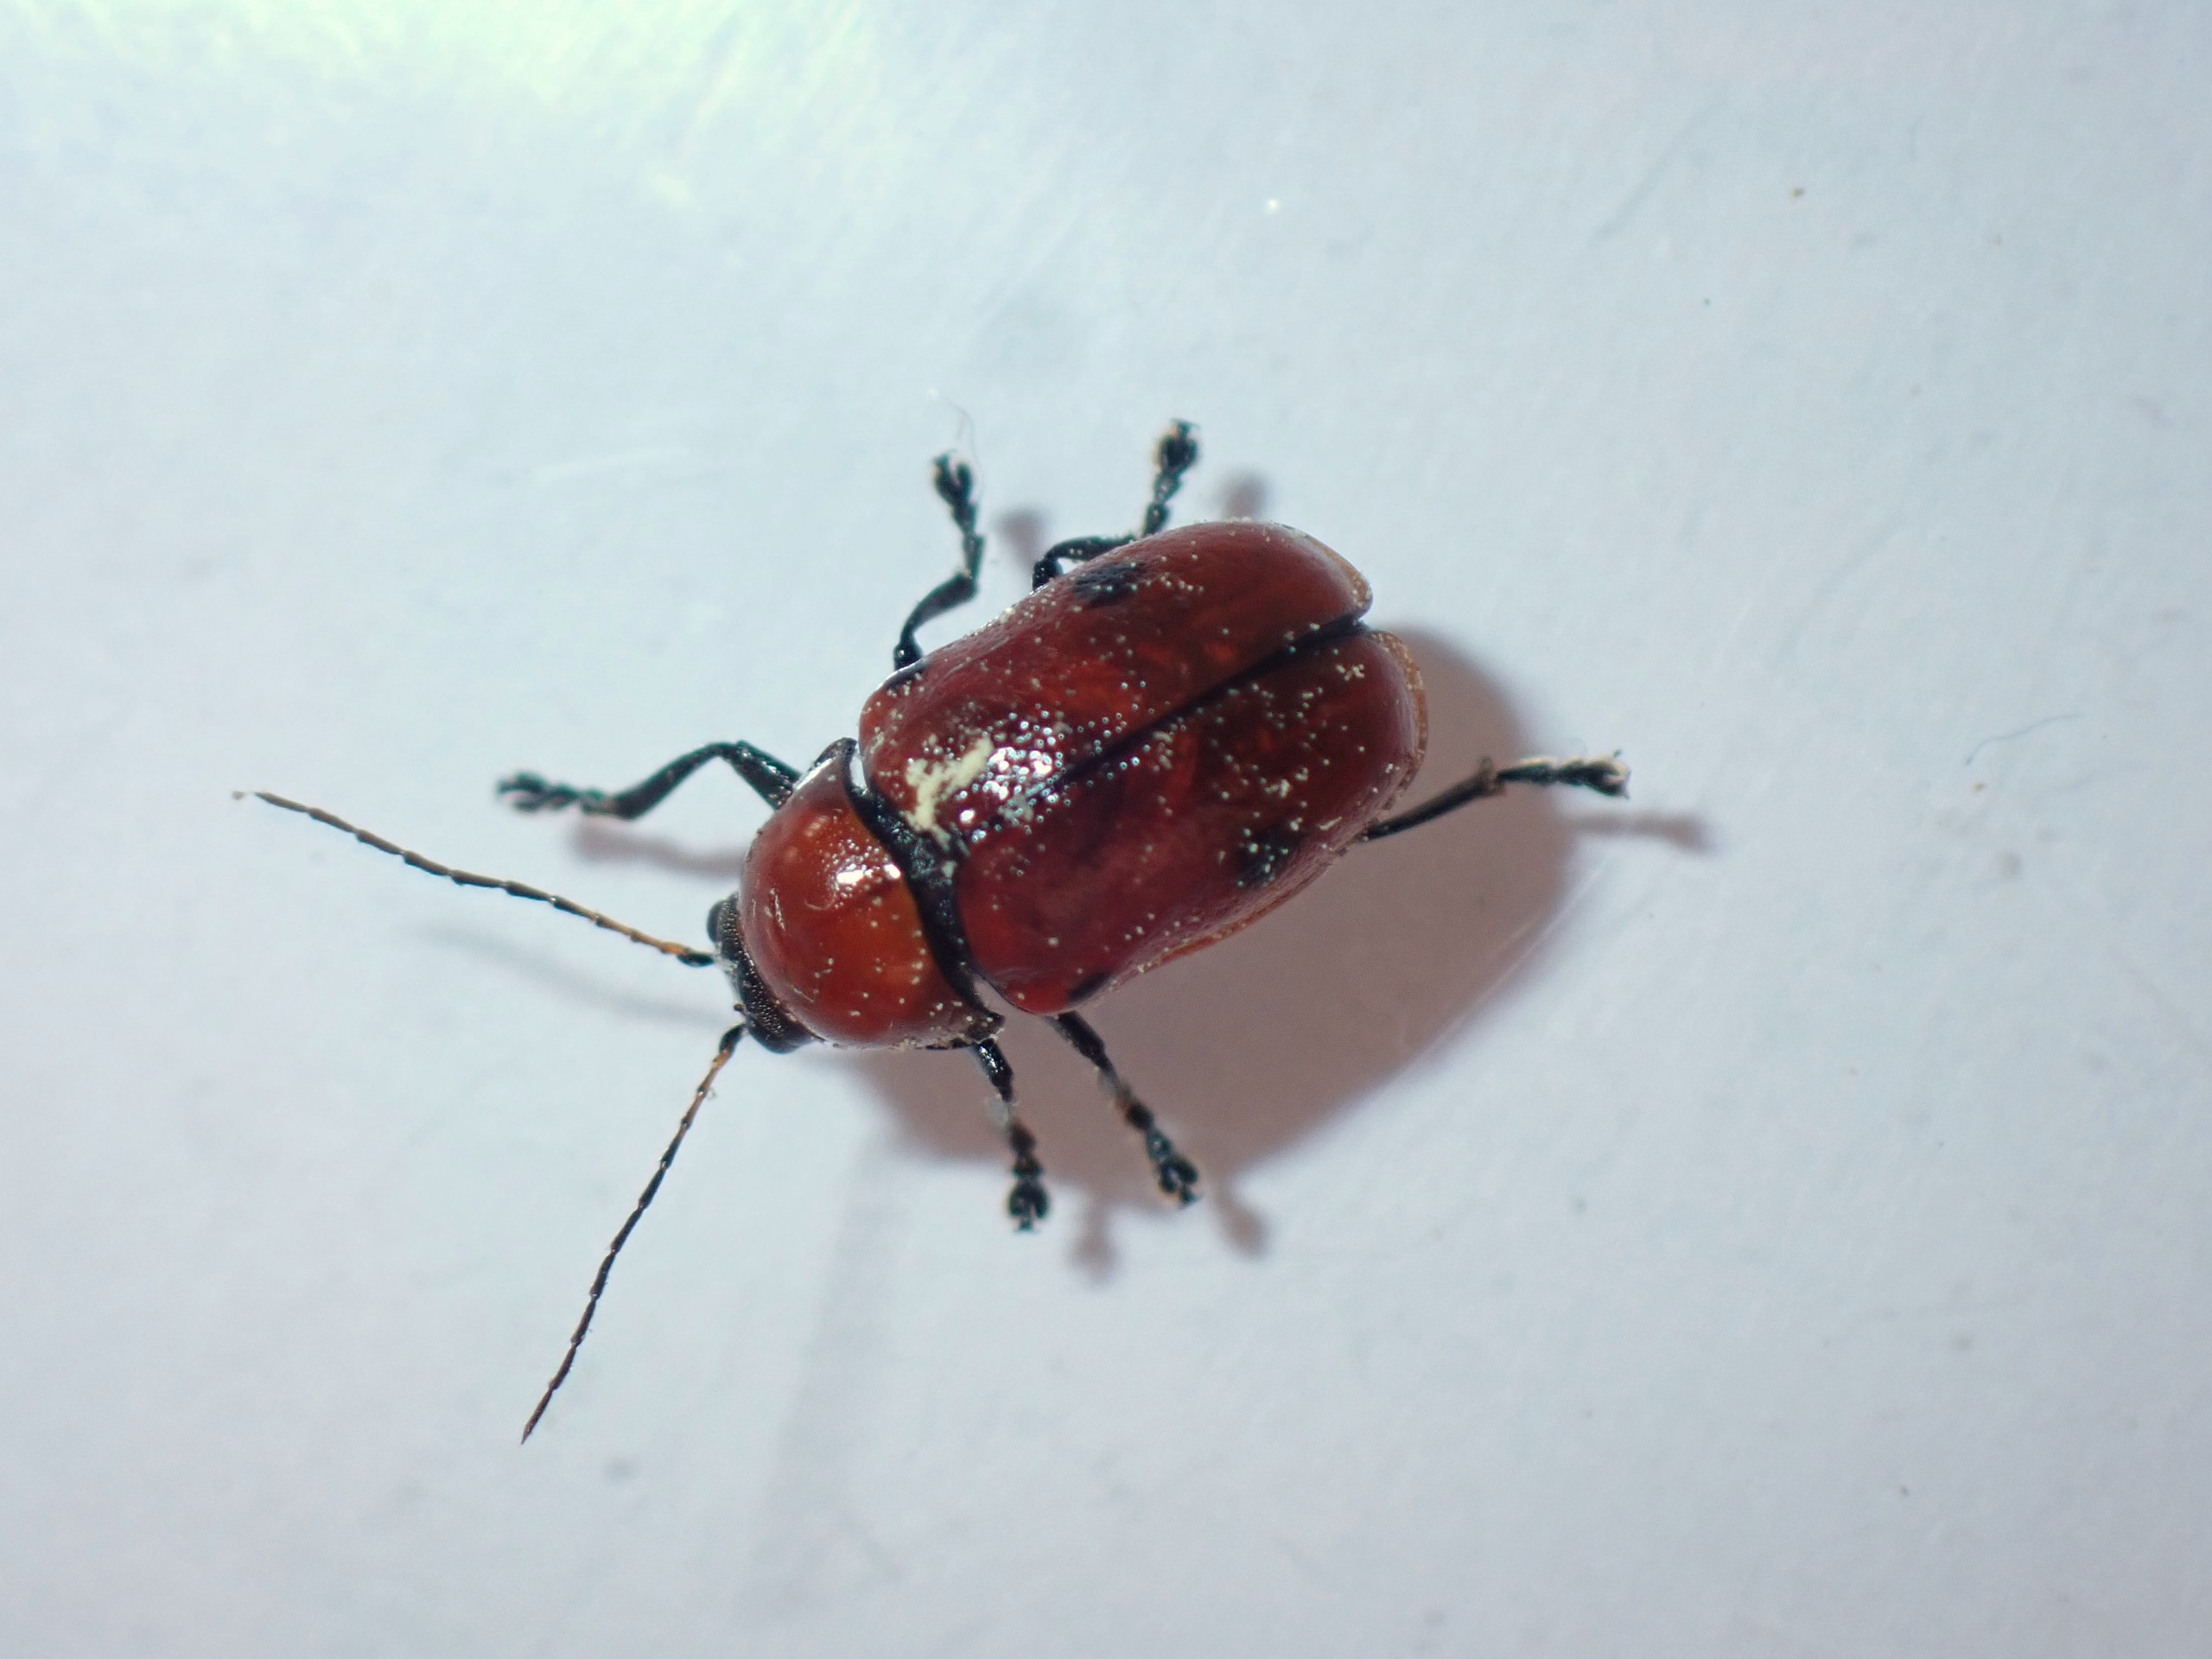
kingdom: Animalia
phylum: Arthropoda
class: Insecta
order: Coleoptera
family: Chrysomelidae
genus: Cryptocephalus
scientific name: Cryptocephalus coryli
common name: Hasselfaldbille
